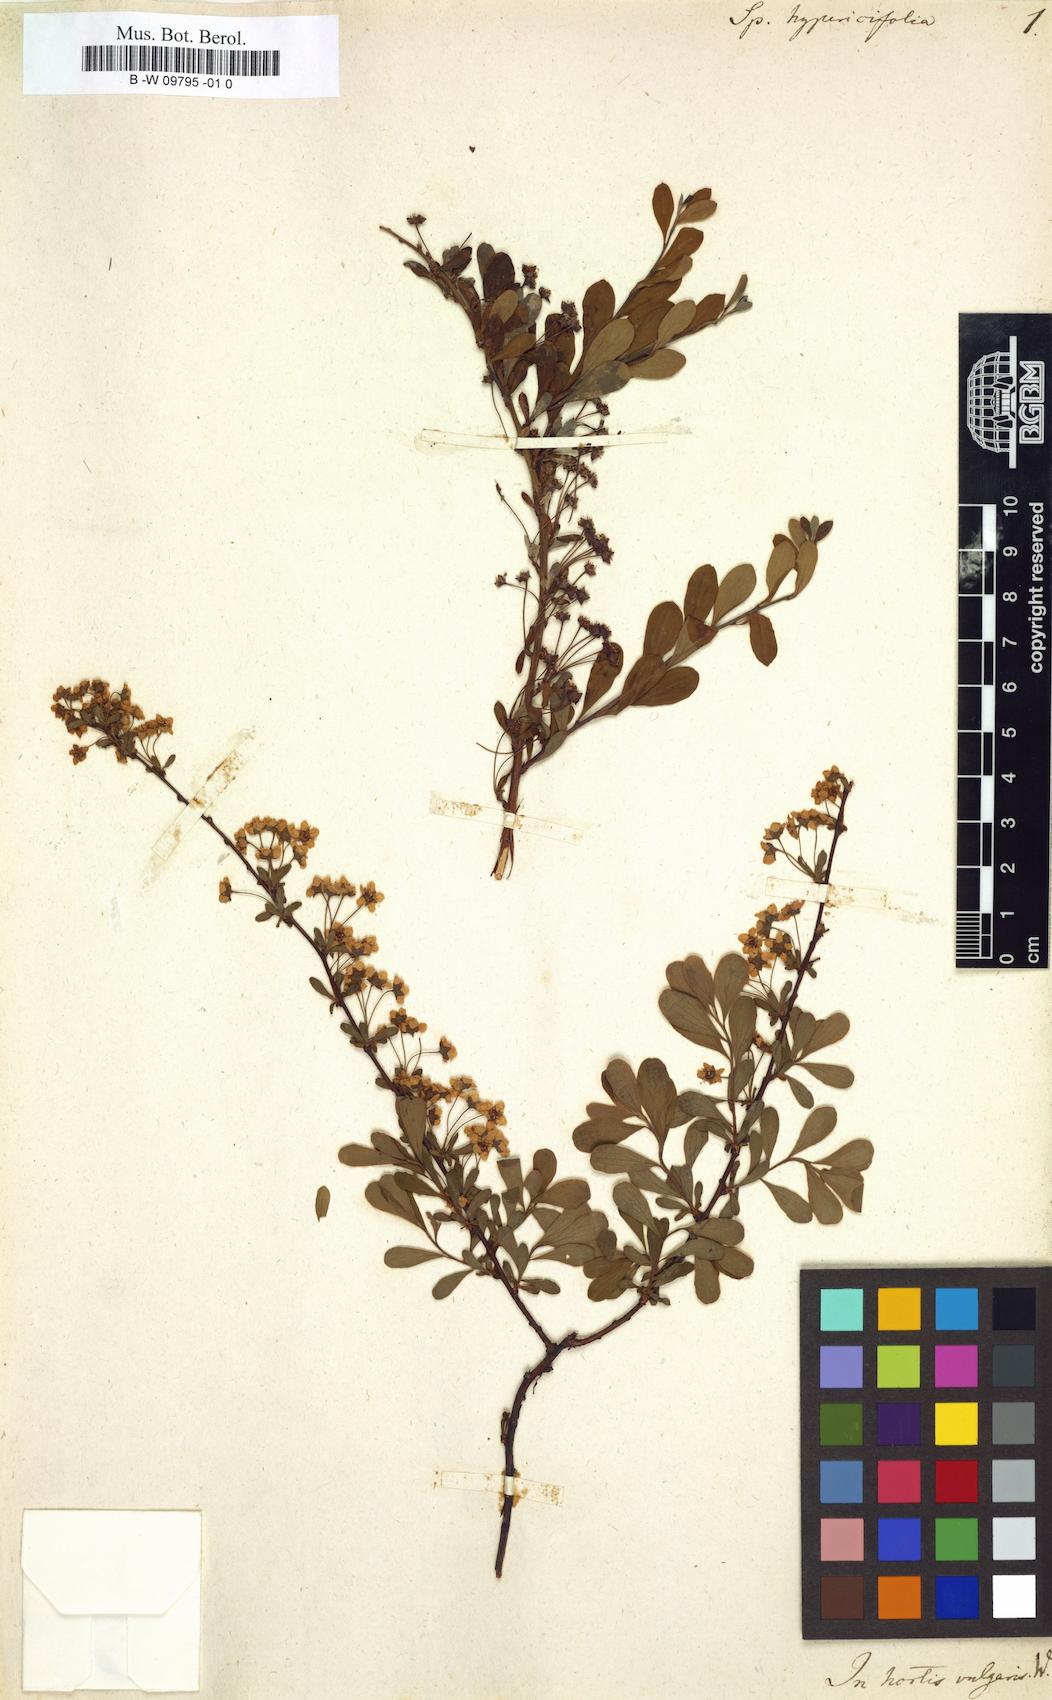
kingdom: Plantae
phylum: Tracheophyta
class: Magnoliopsida
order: Rosales
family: Rosaceae
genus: Spiraea
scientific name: Spiraea hypericifolia
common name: Iberian spirea
